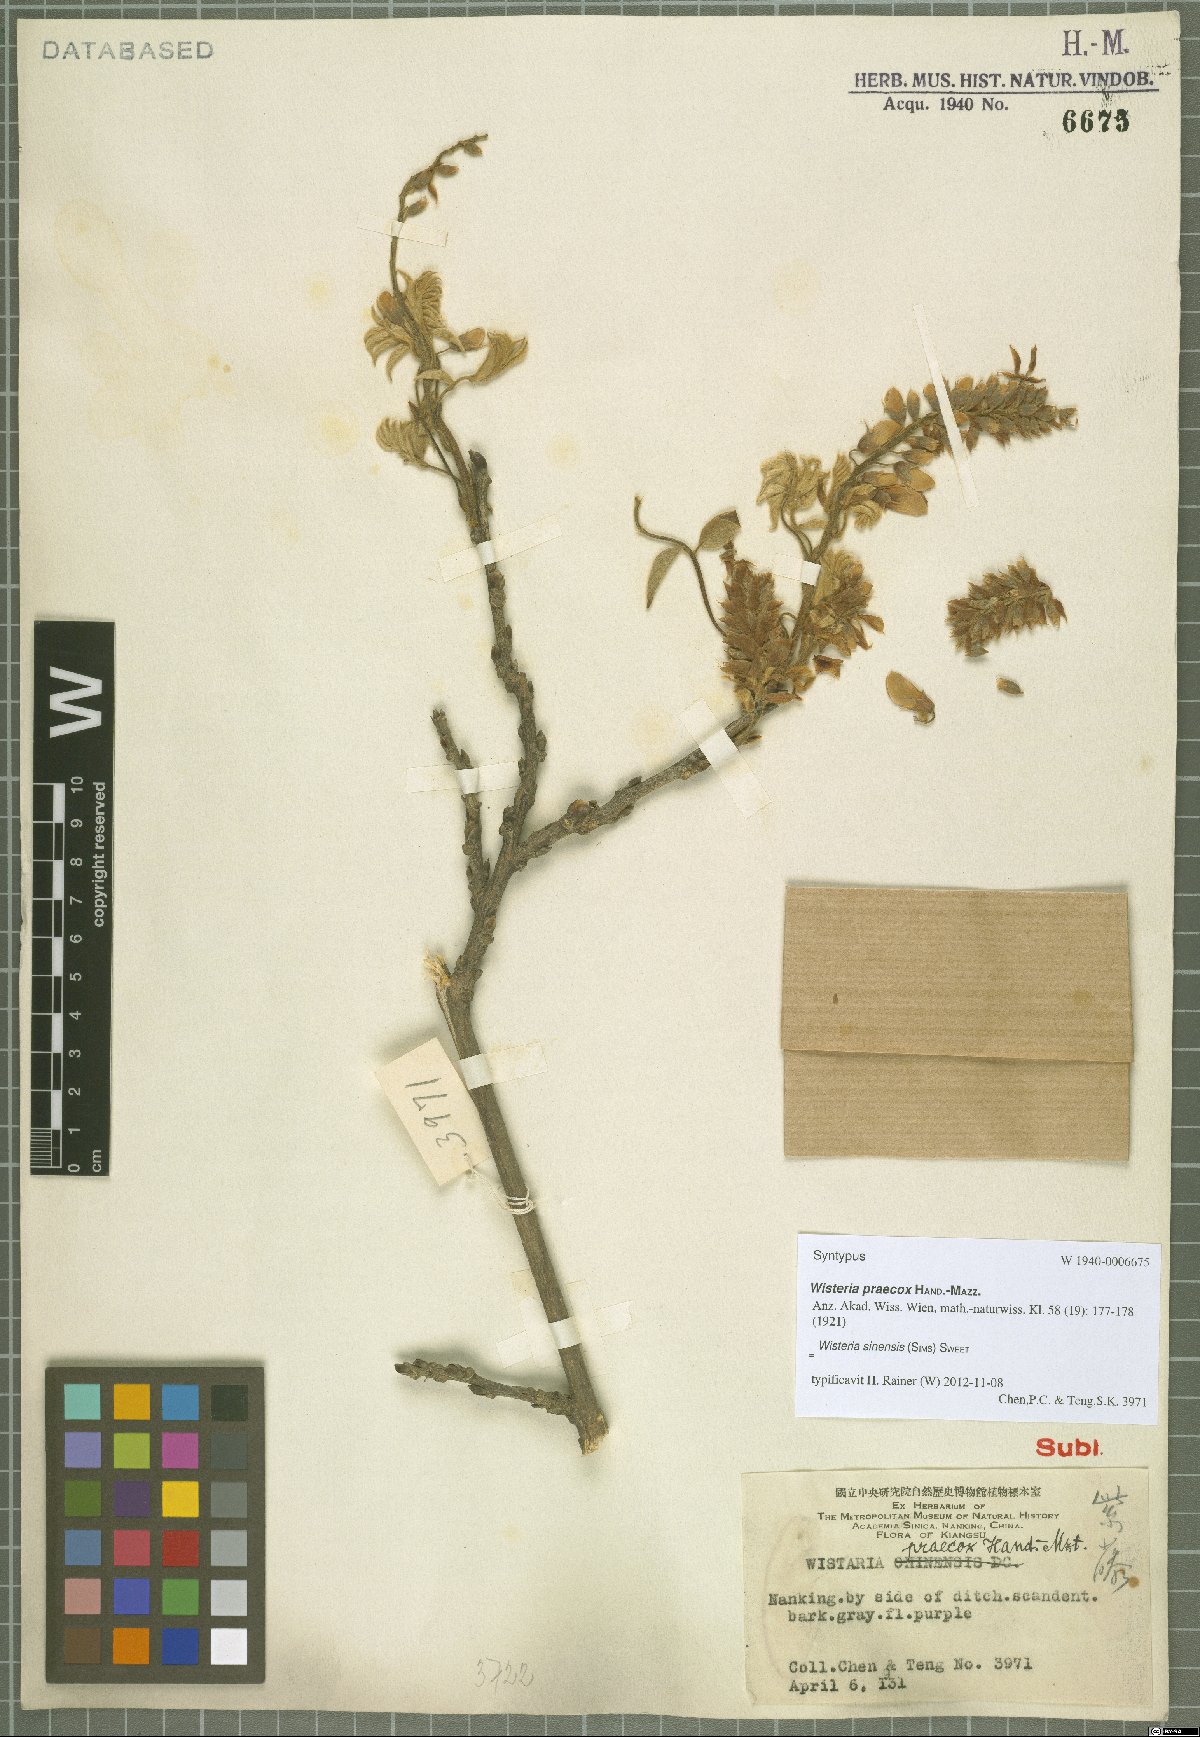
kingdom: Plantae
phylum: Tracheophyta
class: Magnoliopsida
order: Fabales
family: Fabaceae
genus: Wisteria
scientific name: Wisteria sinensis
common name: Chinese wisteria
